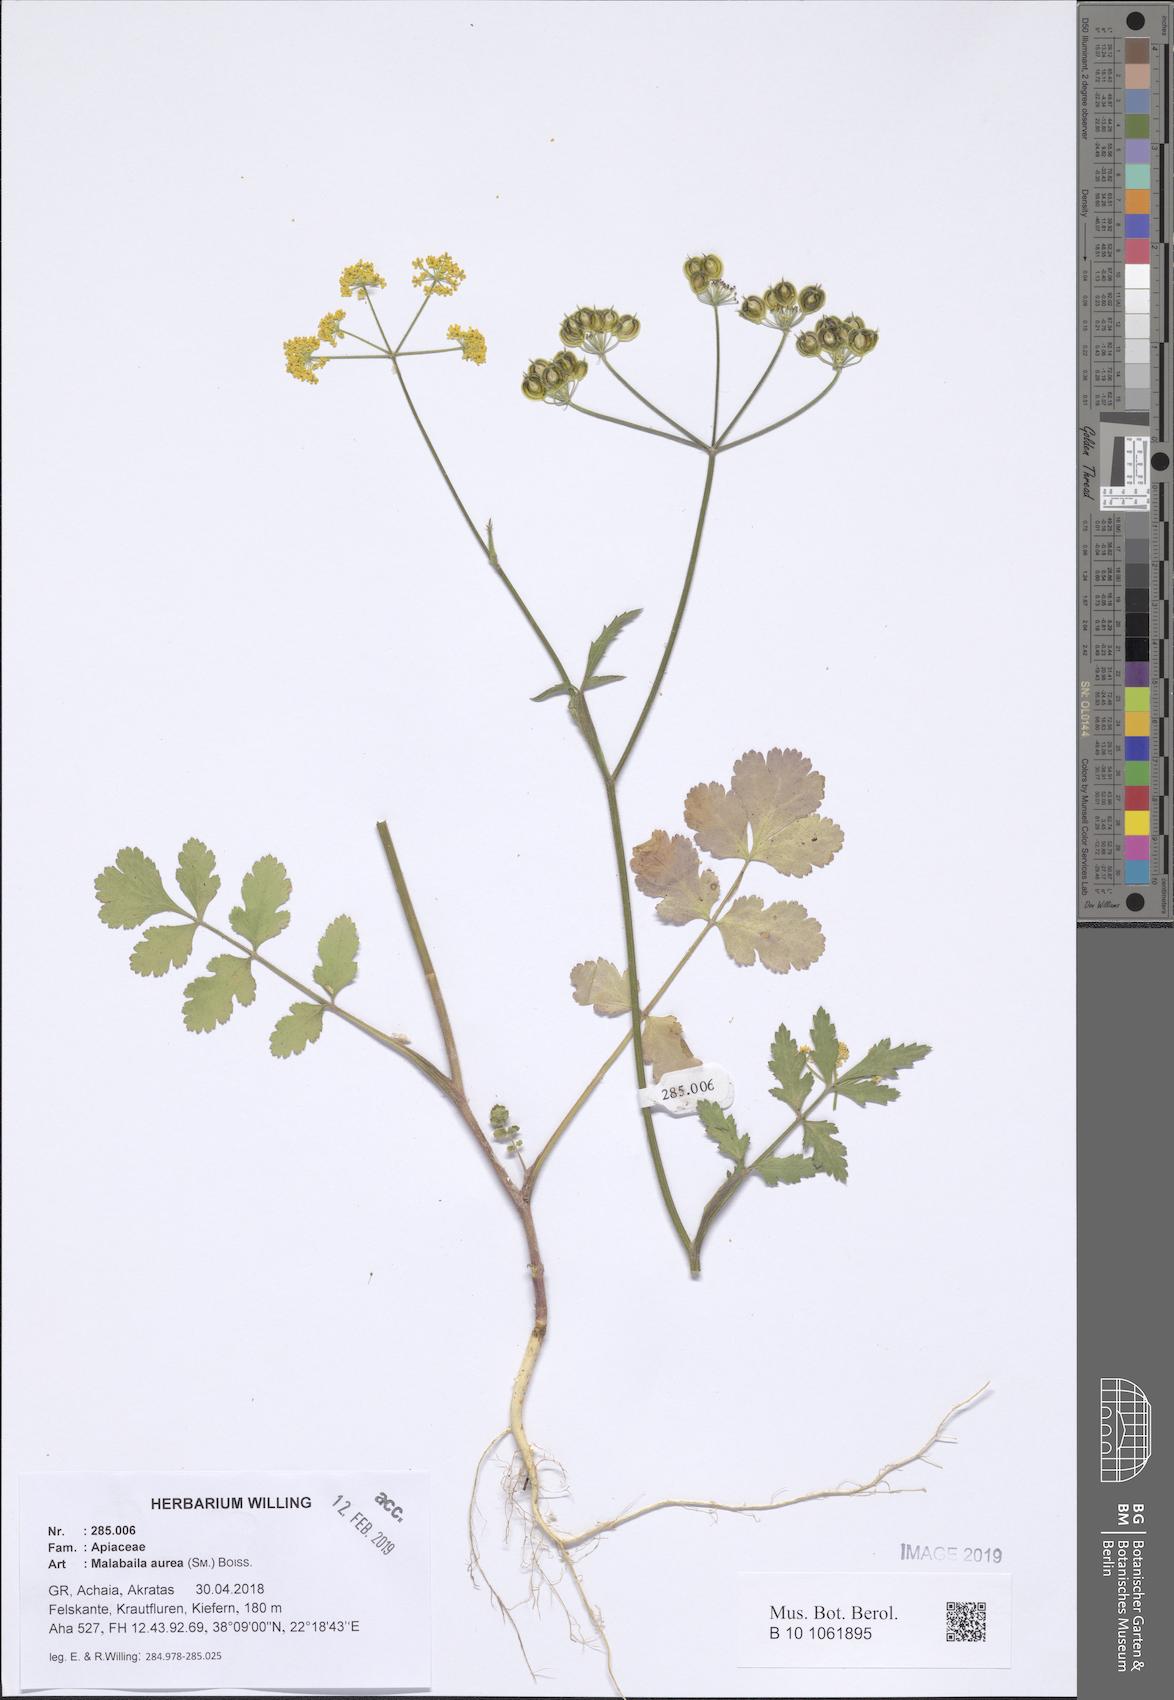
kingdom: Plantae
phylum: Tracheophyta
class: Magnoliopsida
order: Apiales
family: Apiaceae
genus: Leiotulus
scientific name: Leiotulus aureus
